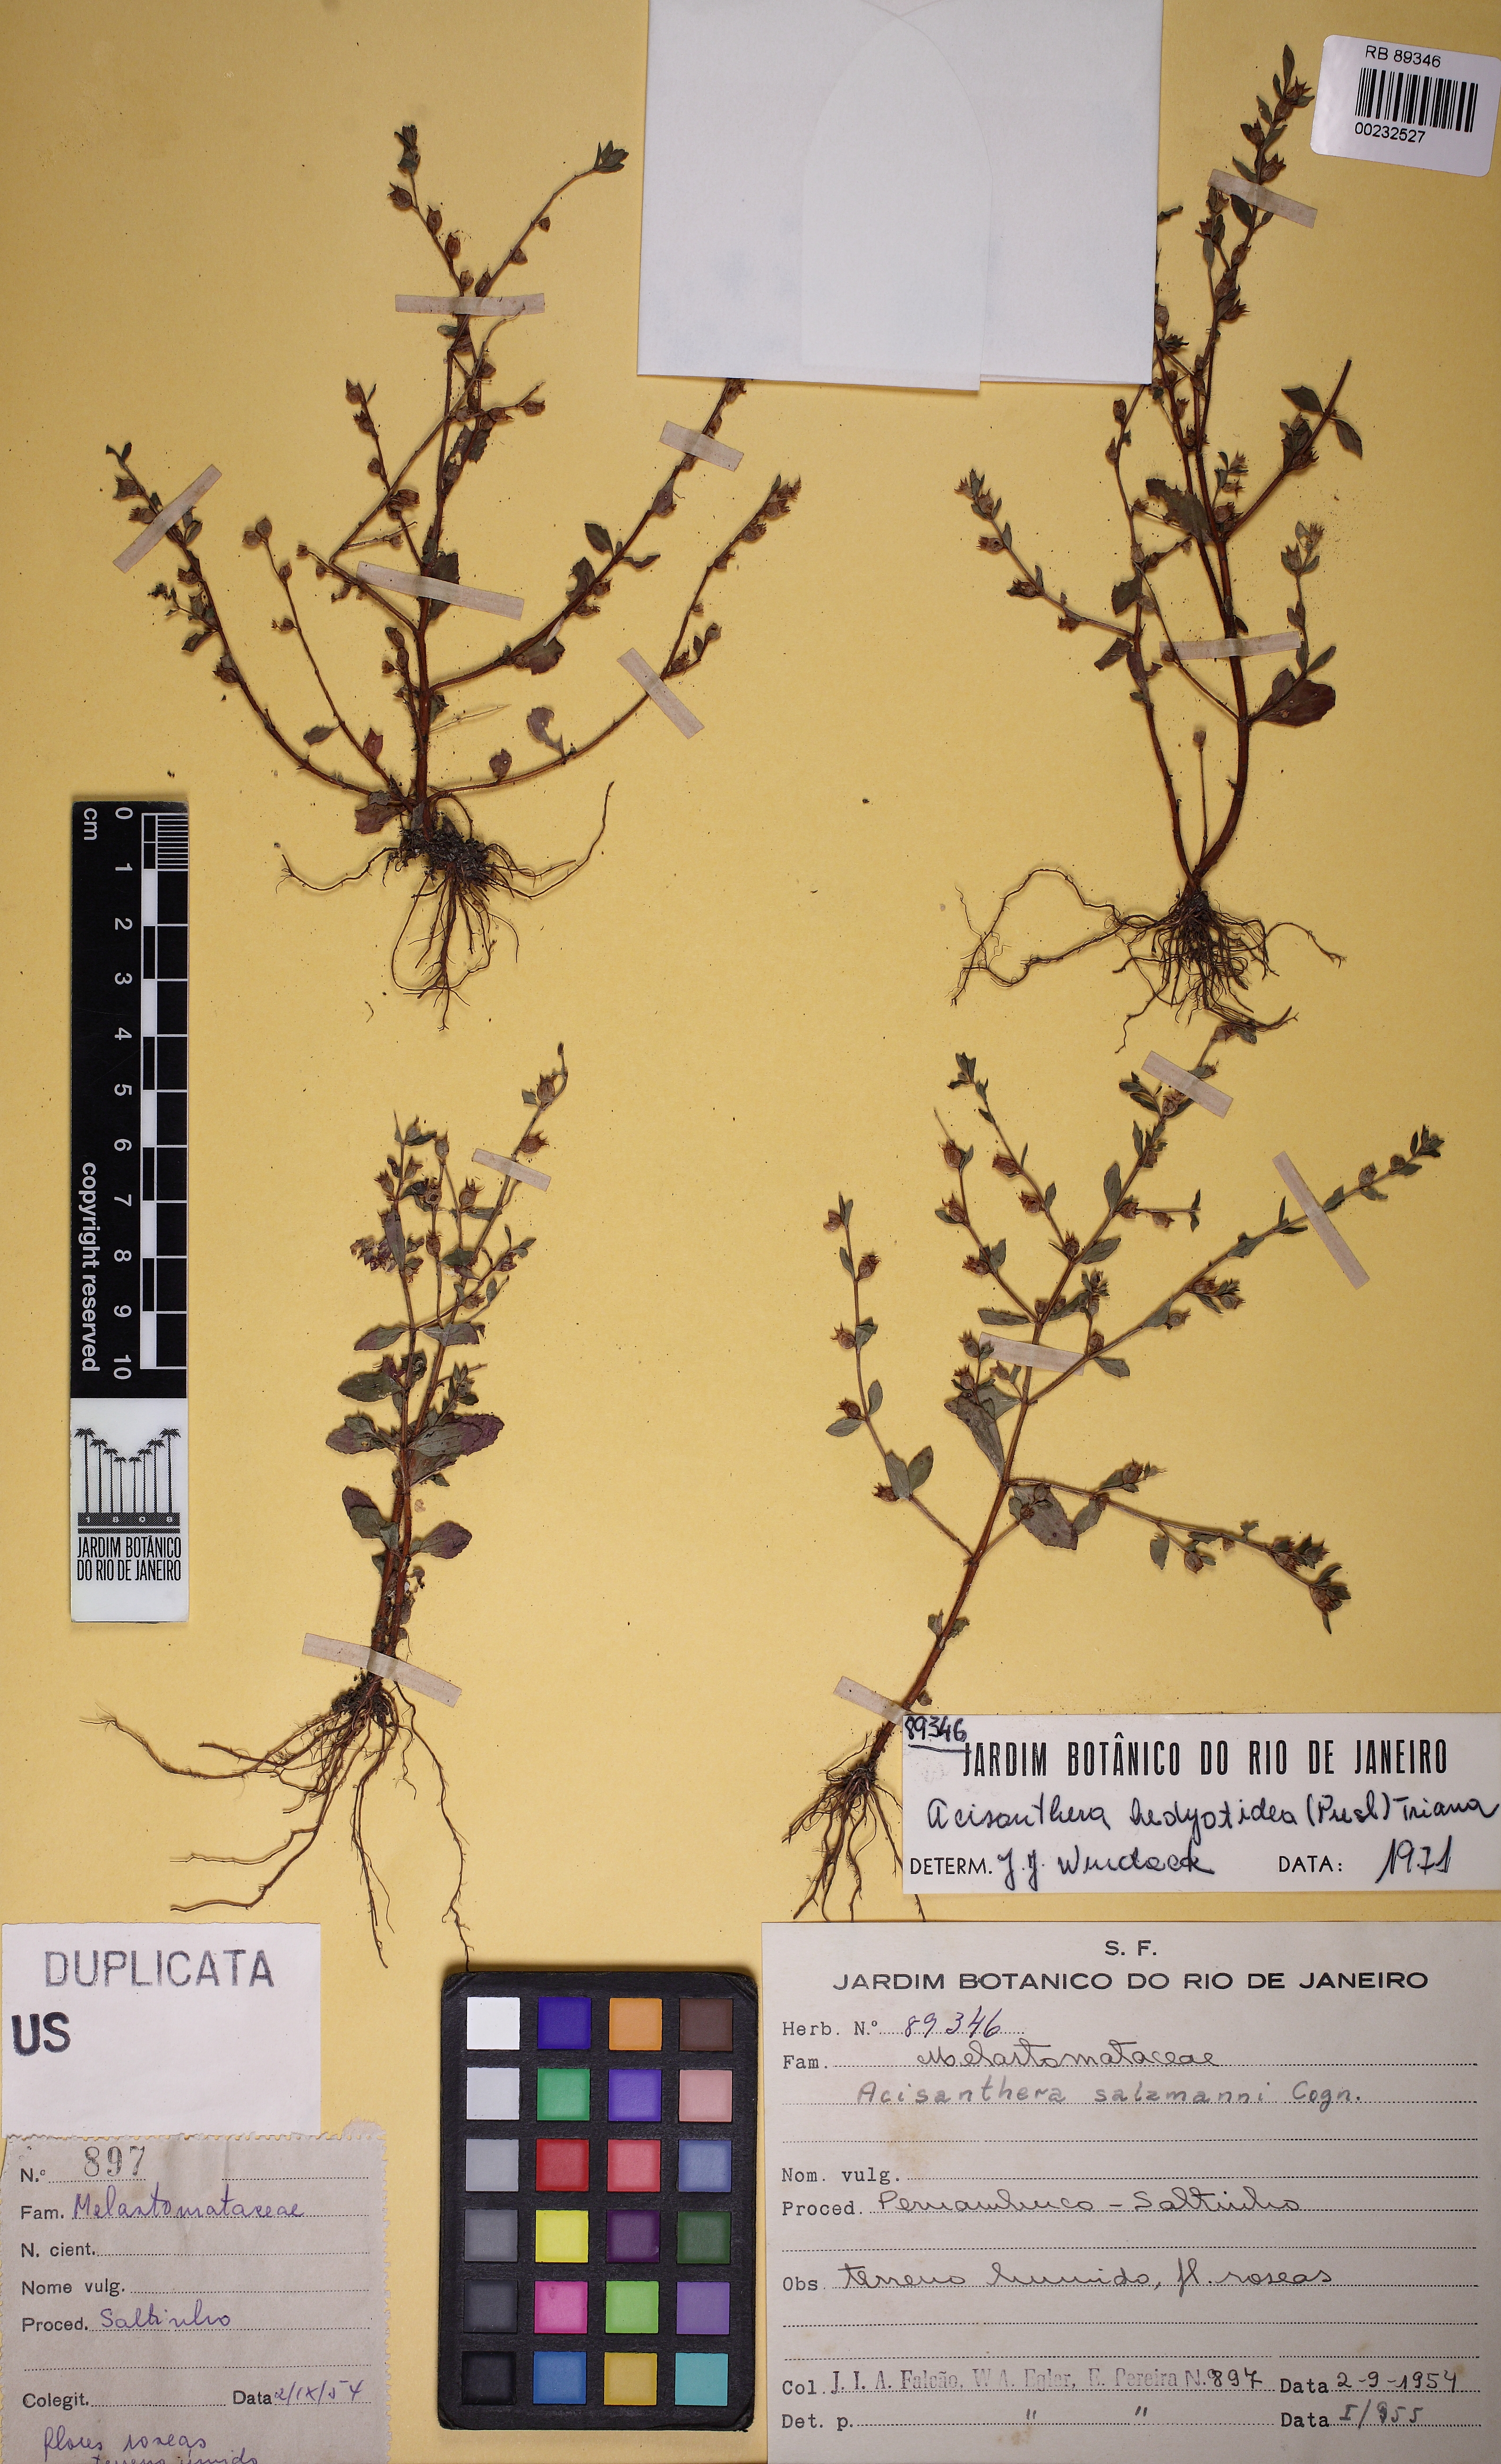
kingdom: Plantae
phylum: Tracheophyta
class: Magnoliopsida
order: Myrtales
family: Melastomataceae
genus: Dicrananthera
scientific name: Dicrananthera hedyotidea
